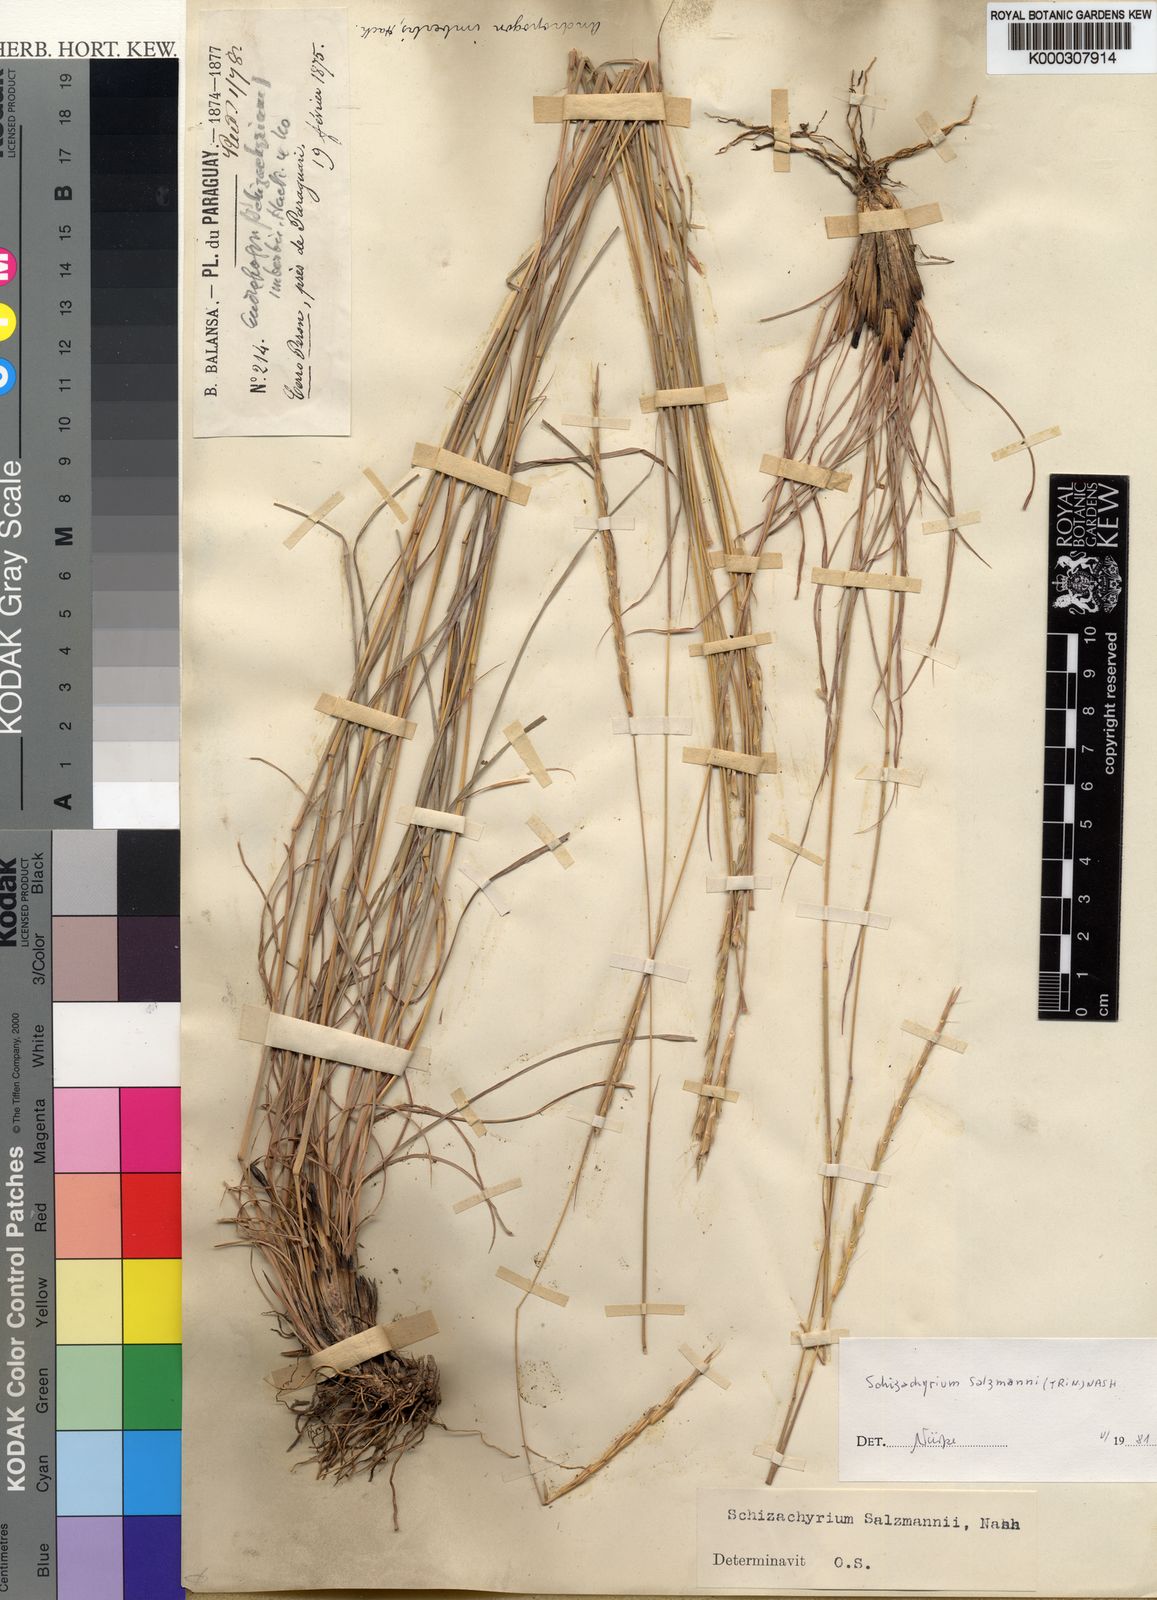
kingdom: Plantae
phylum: Tracheophyta
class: Liliopsida
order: Poales
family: Poaceae
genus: Andropogon
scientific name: Andropogon salzmannii
